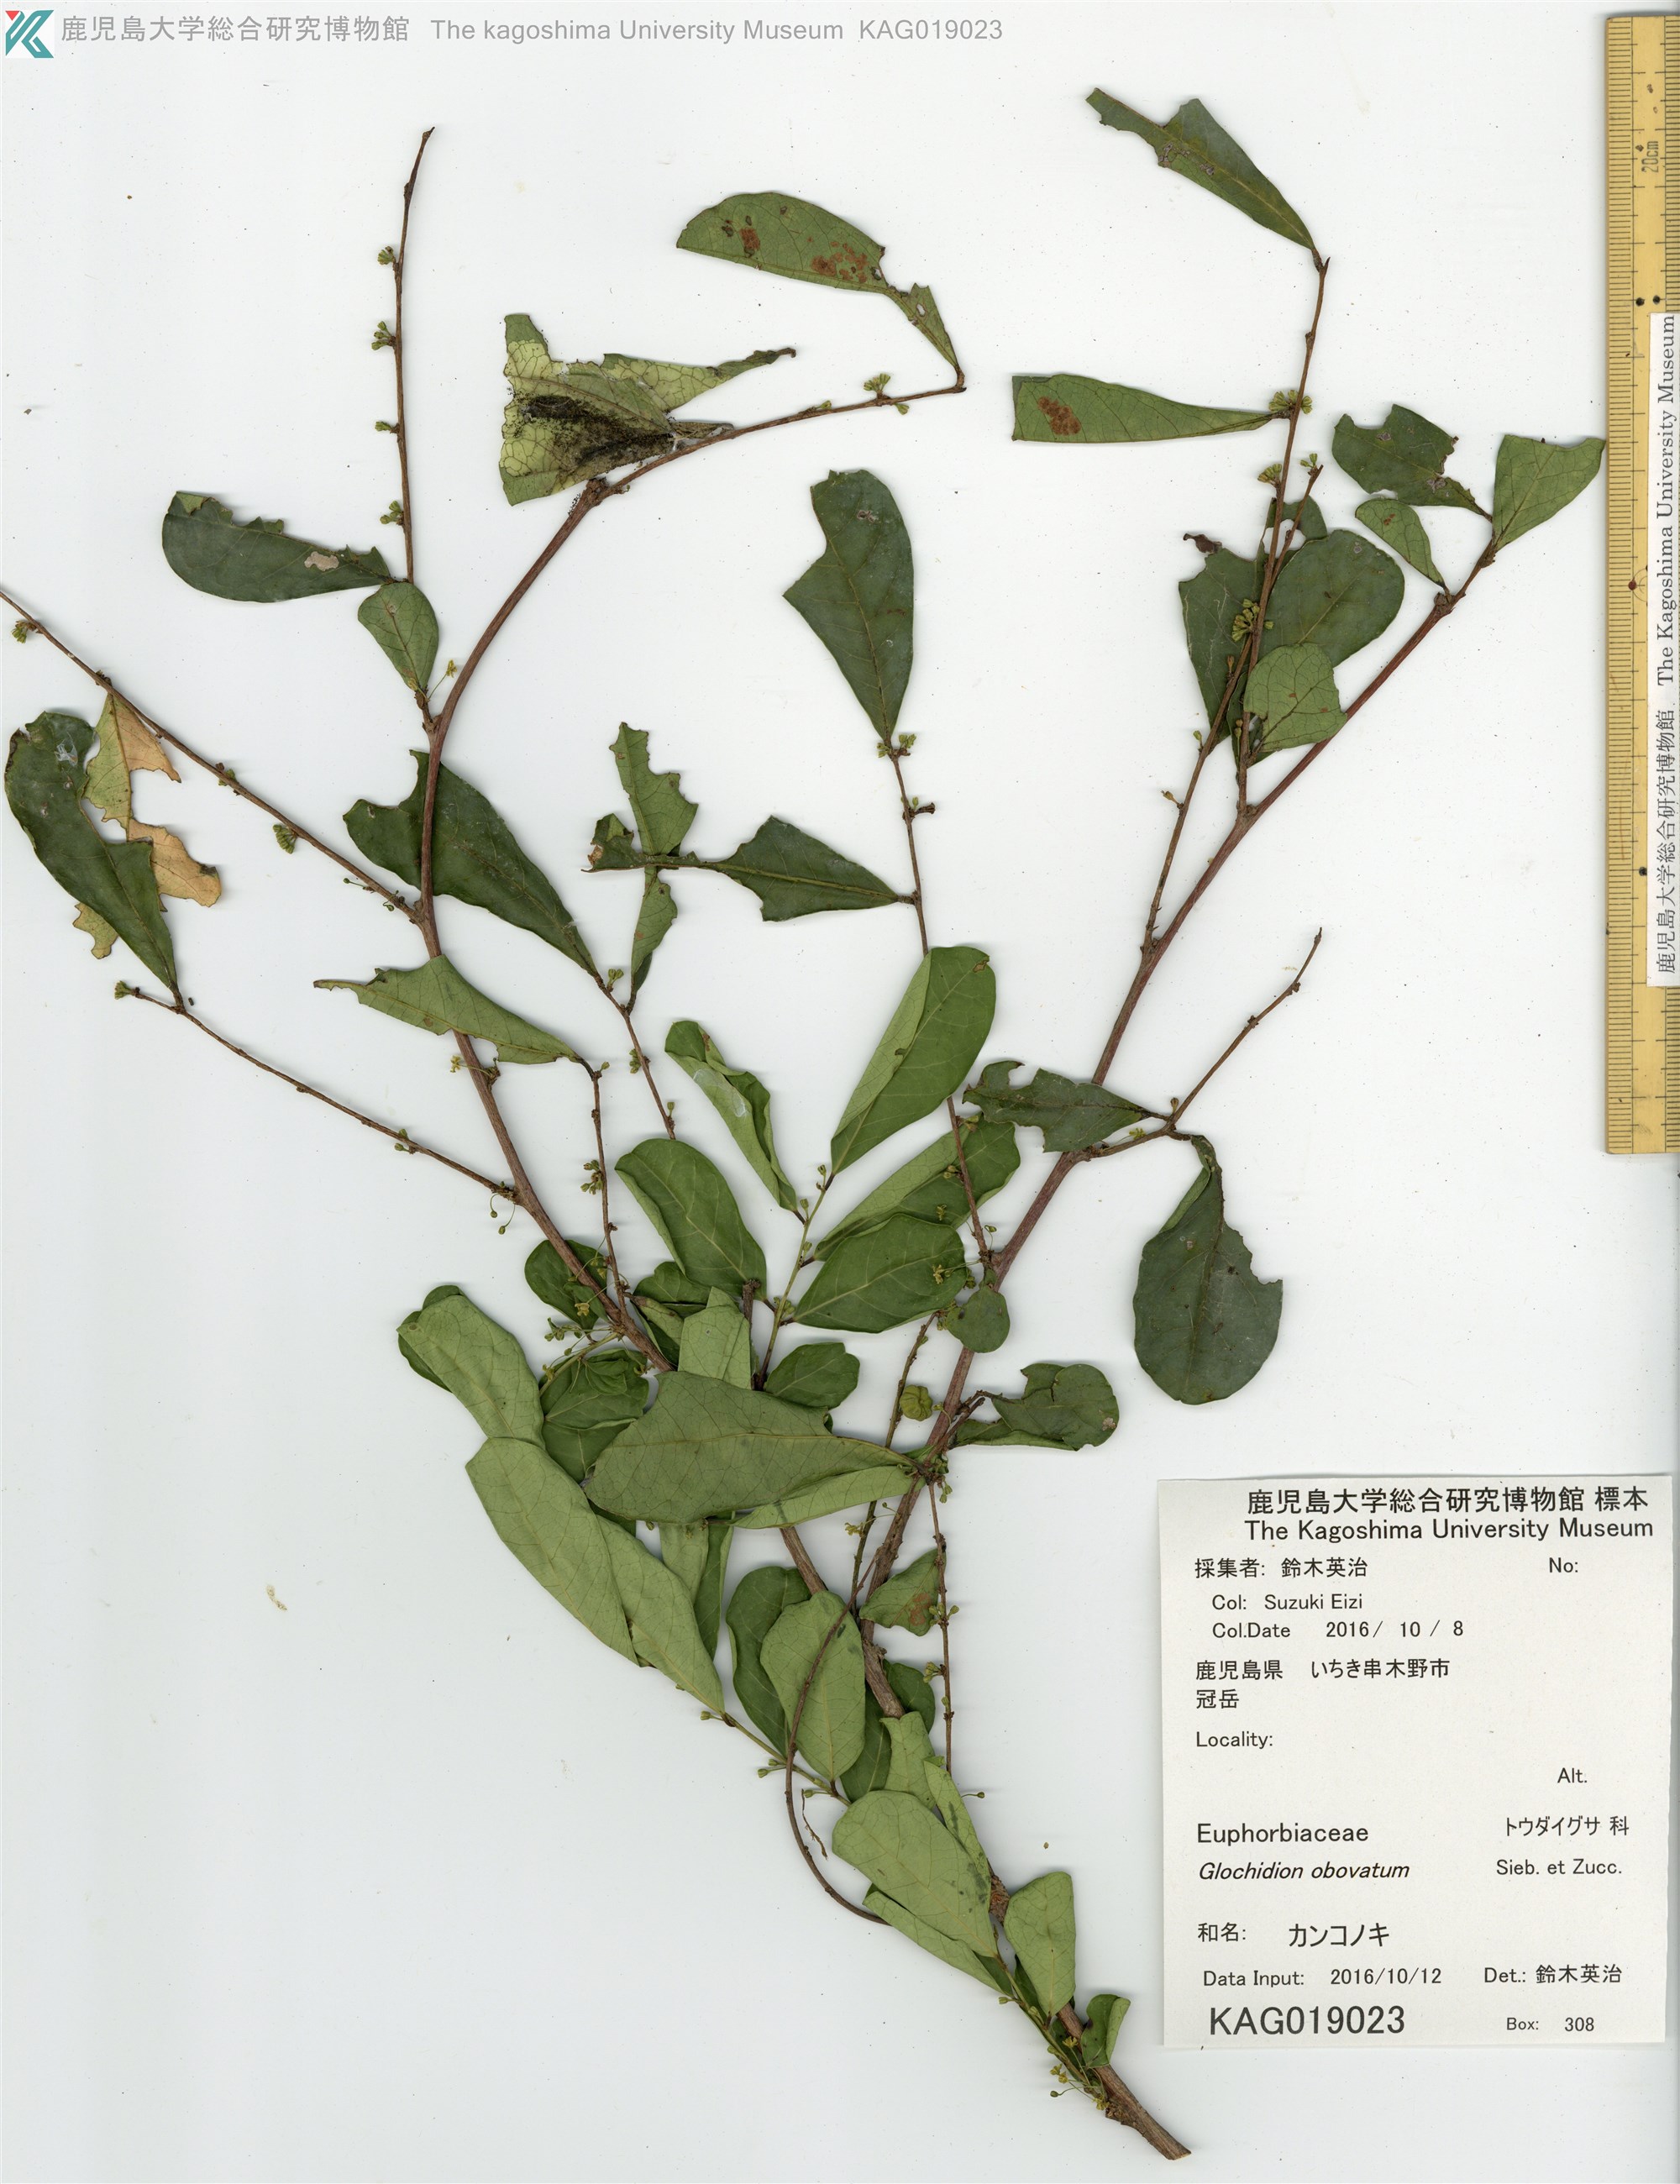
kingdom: Plantae
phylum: Tracheophyta
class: Magnoliopsida
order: Malpighiales
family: Phyllanthaceae
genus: Glochidion
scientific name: Glochidion obovatum
